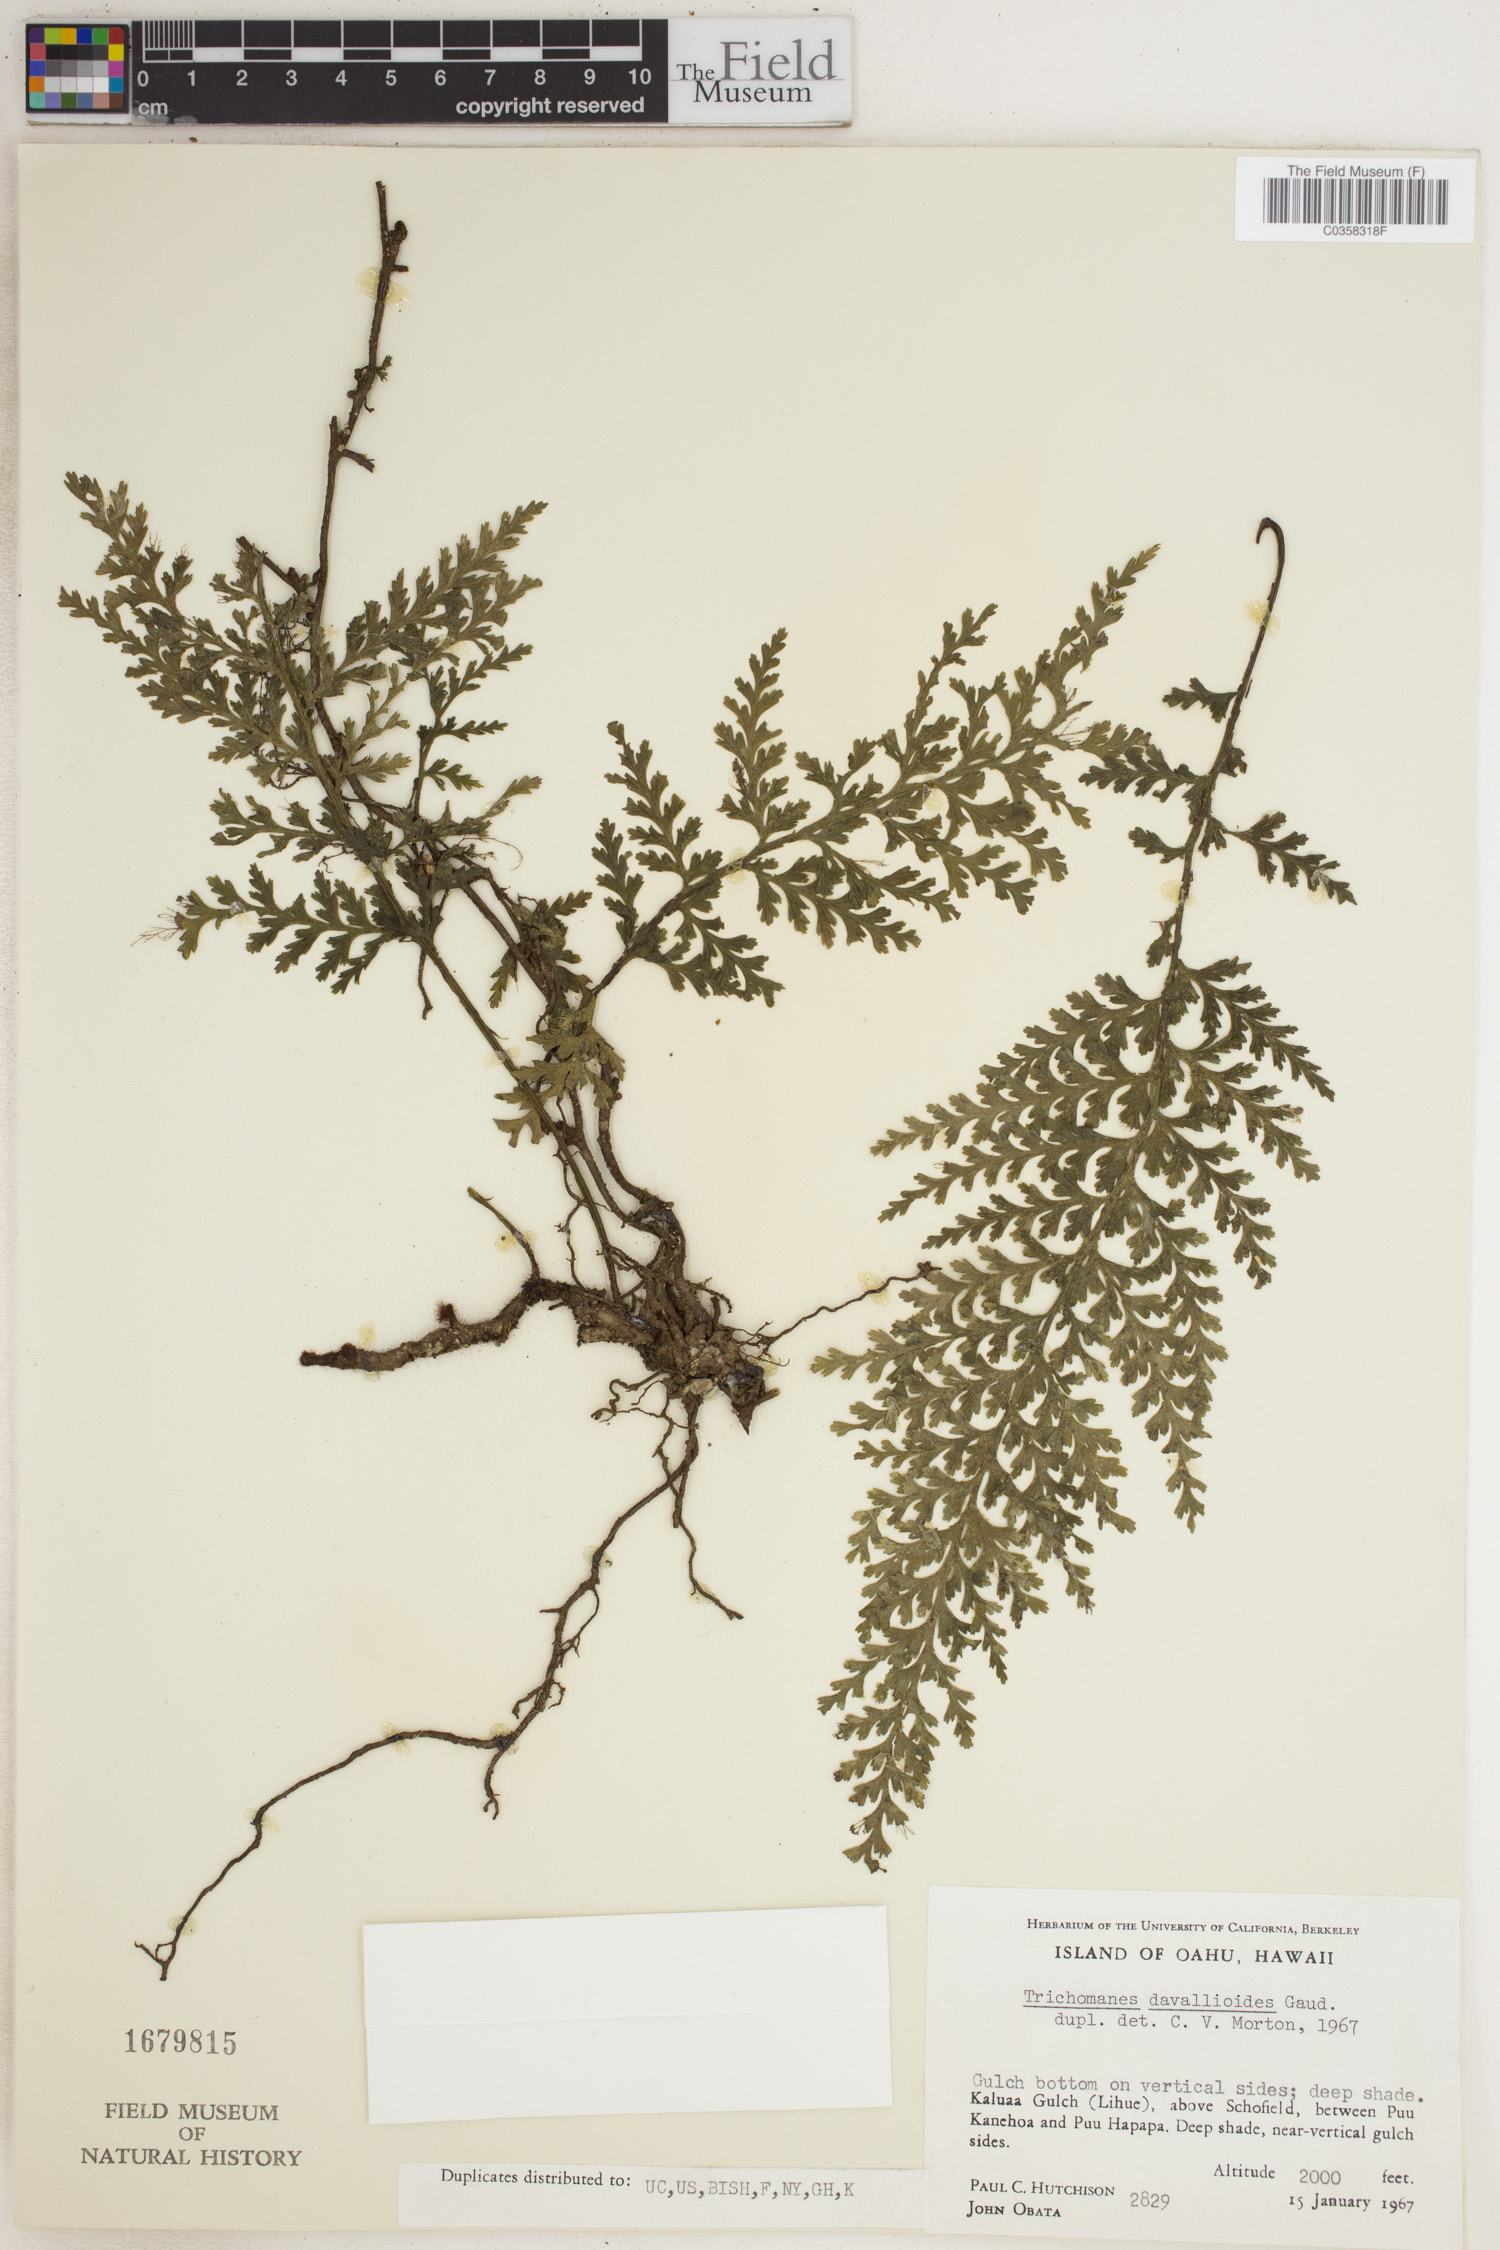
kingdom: Plantae
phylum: Tracheophyta
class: Polypodiopsida
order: Hymenophyllales
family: Hymenophyllaceae
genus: Vandenboschia
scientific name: Vandenboschia davallioides
